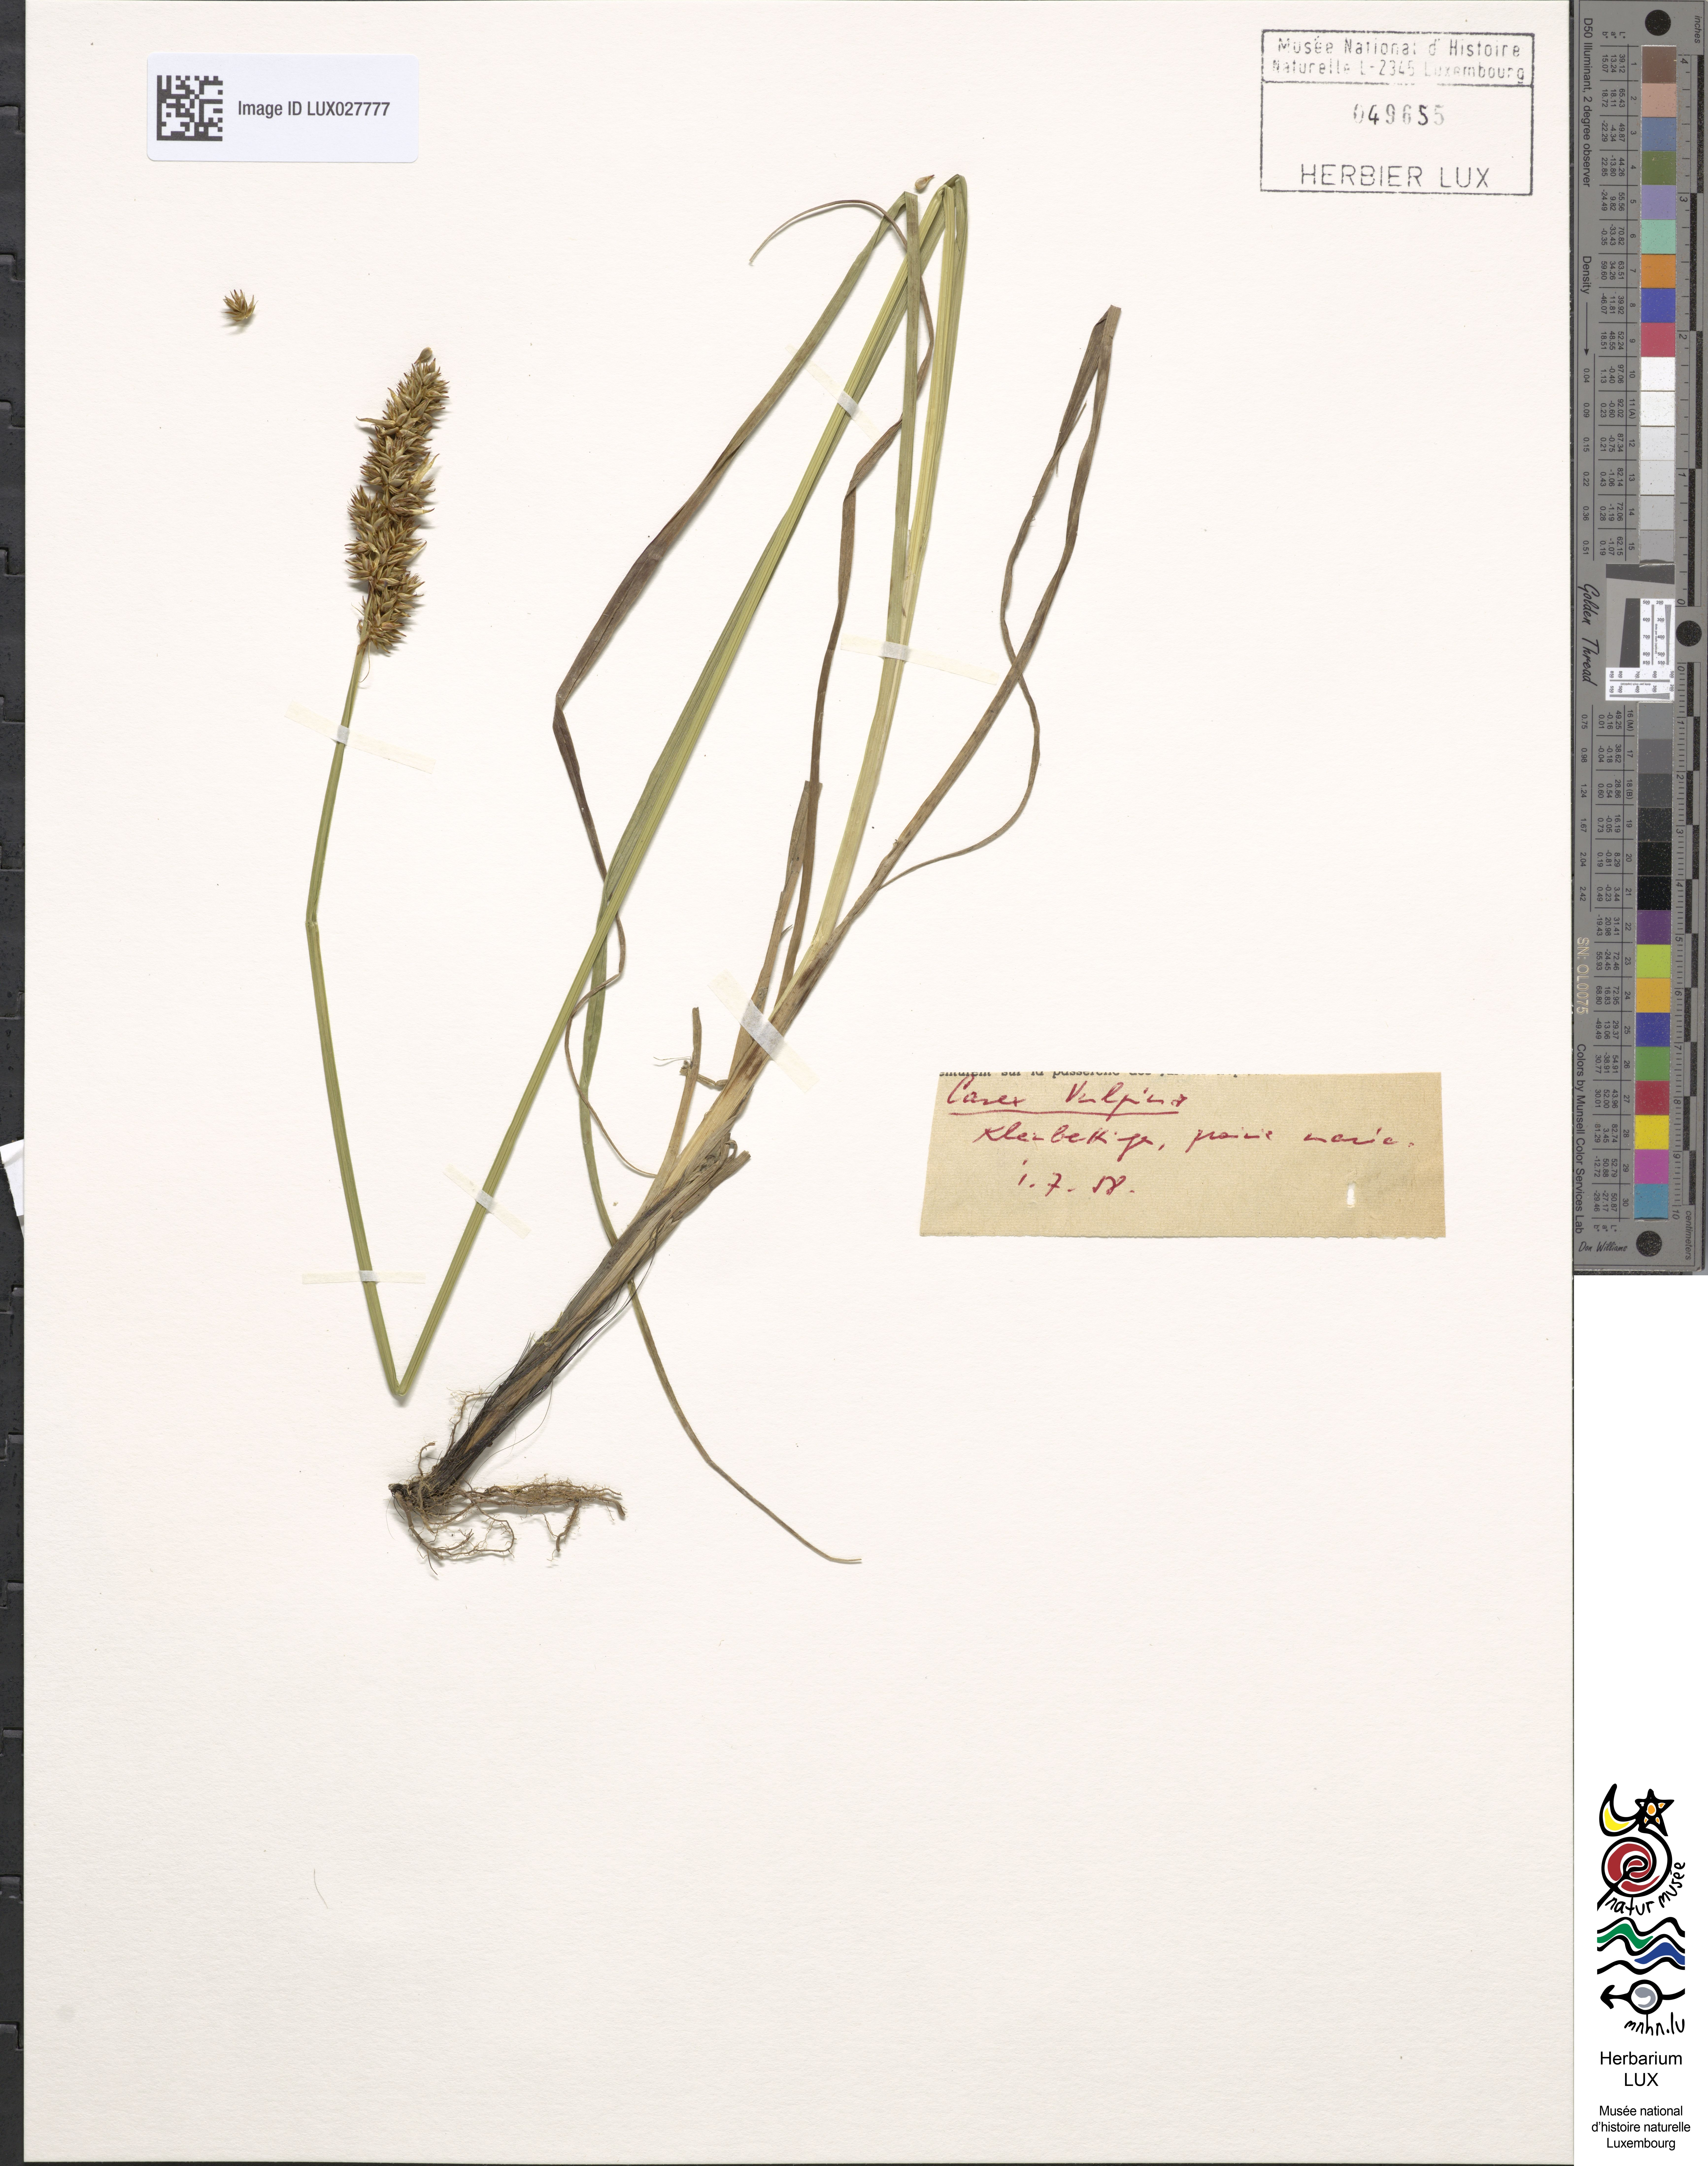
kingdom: Plantae
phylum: Tracheophyta
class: Liliopsida
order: Poales
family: Cyperaceae
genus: Carex
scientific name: Carex vulpina
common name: True fox-sedge
